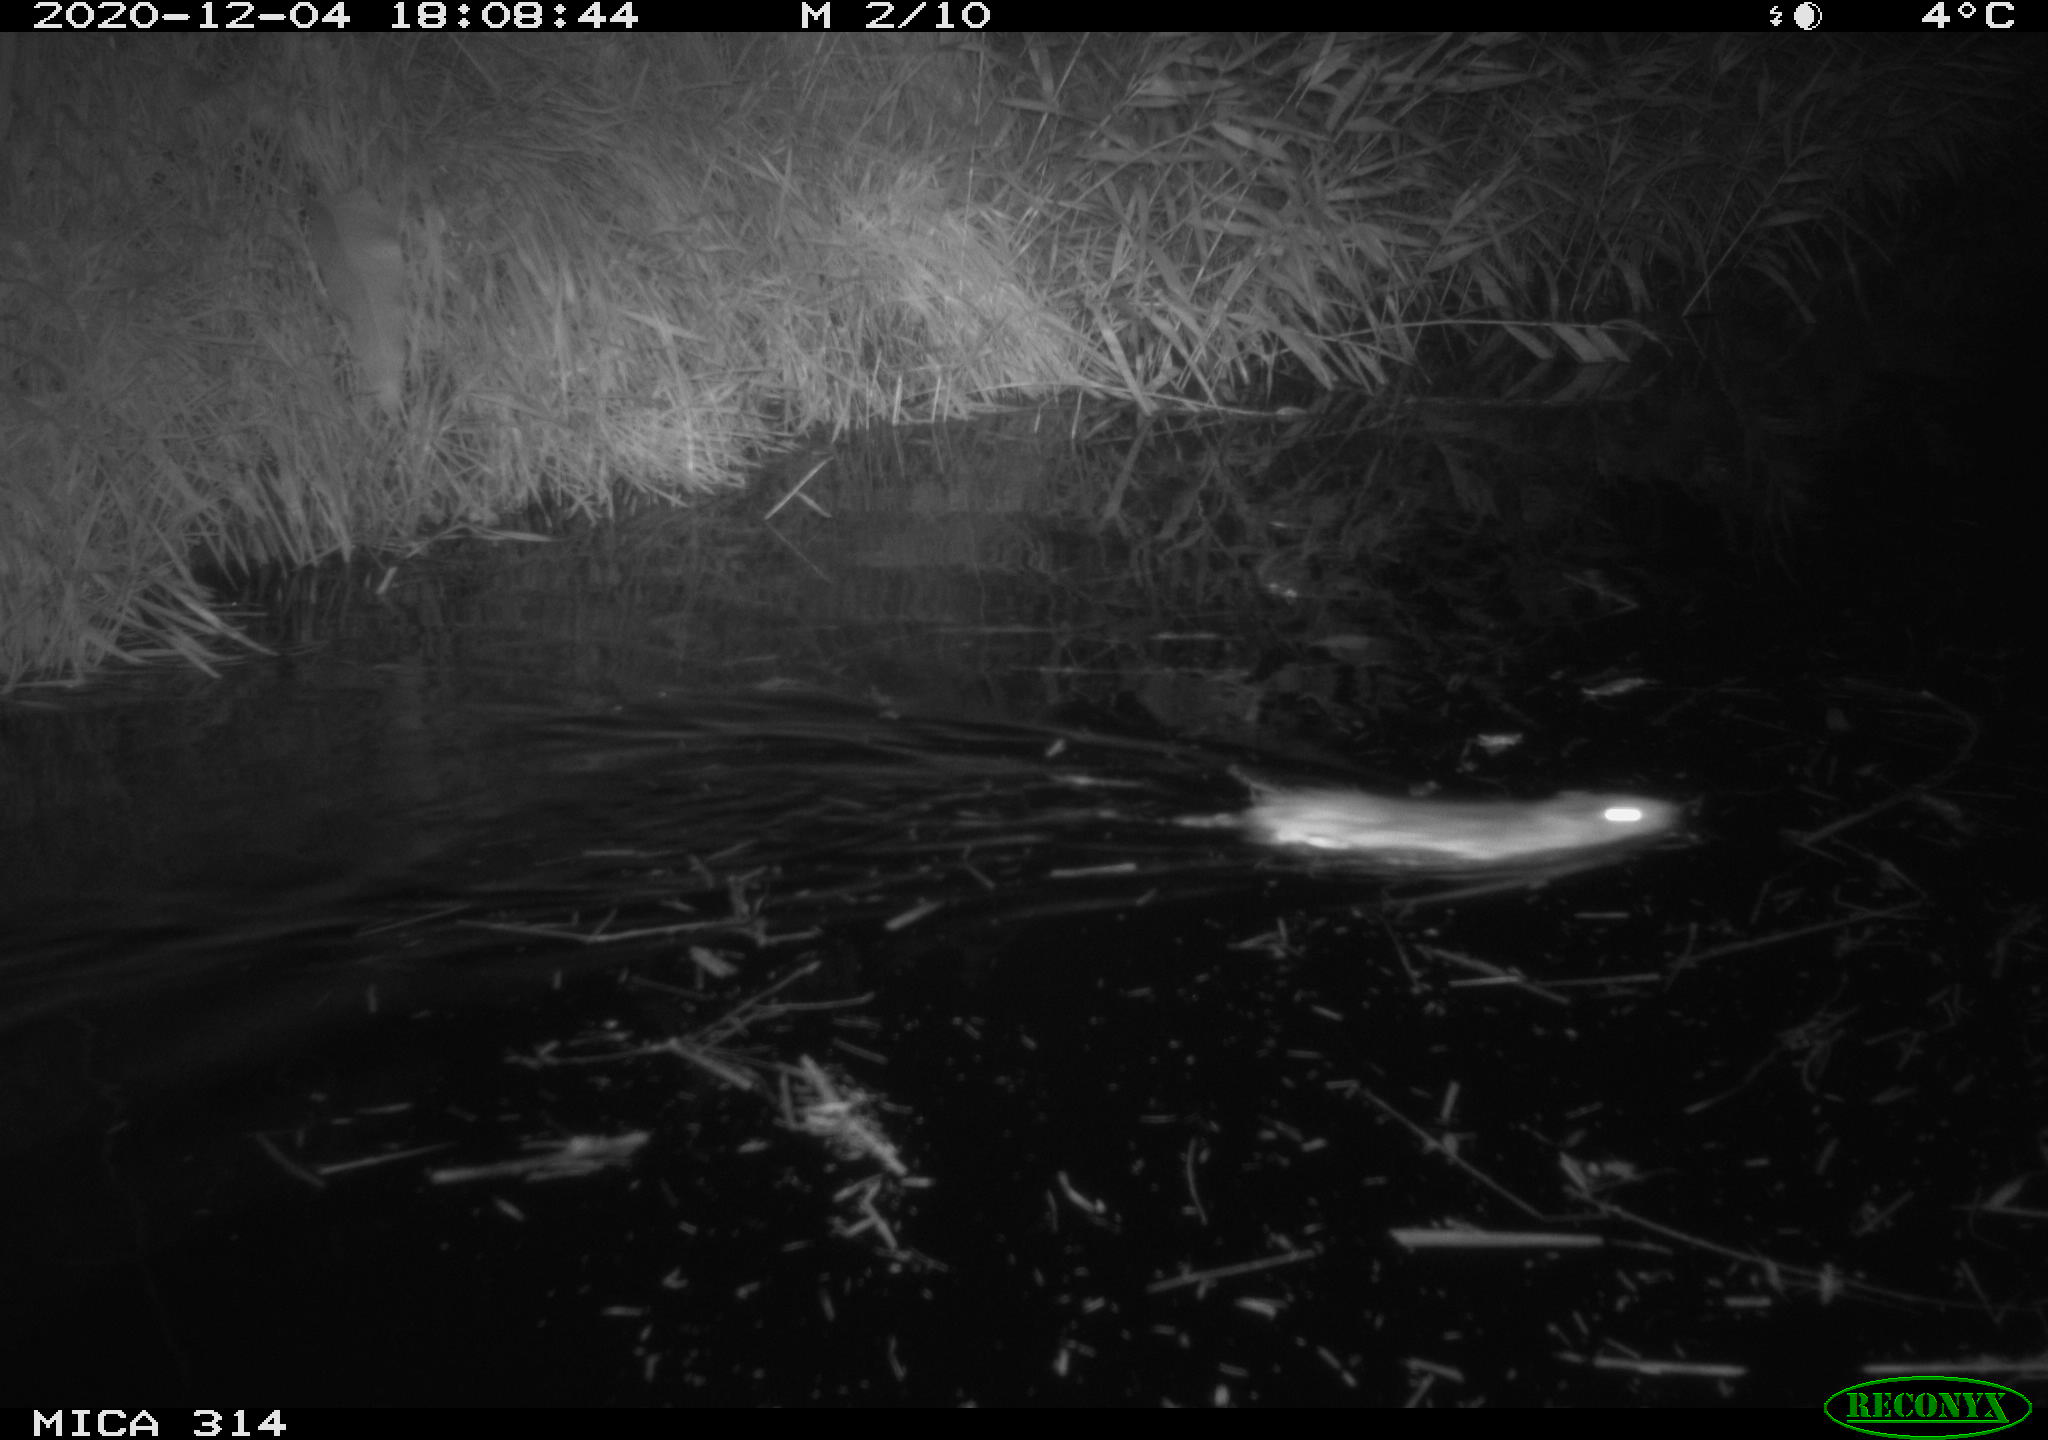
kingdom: Animalia
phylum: Chordata
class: Mammalia
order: Rodentia
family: Muridae
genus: Rattus
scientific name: Rattus norvegicus
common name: Brown rat
